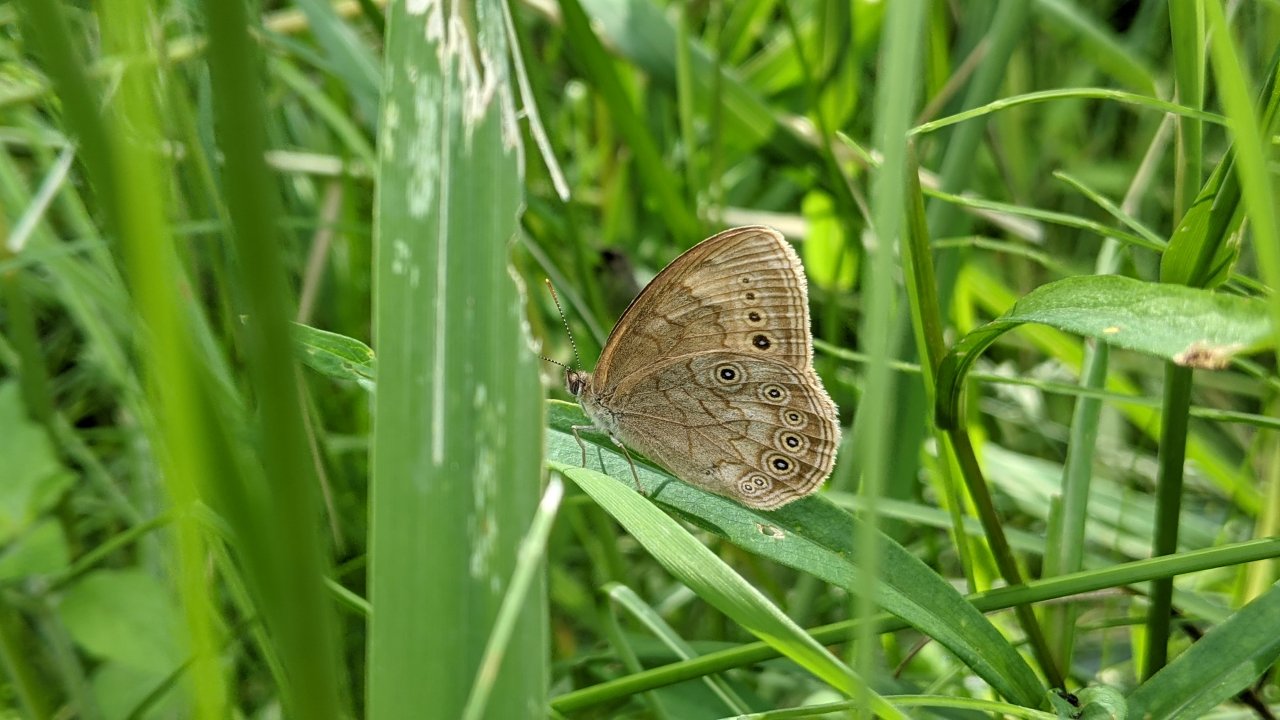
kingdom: Animalia
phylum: Arthropoda
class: Insecta
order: Lepidoptera
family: Nymphalidae
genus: Lethe
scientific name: Lethe eurydice
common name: Eyed Brown
